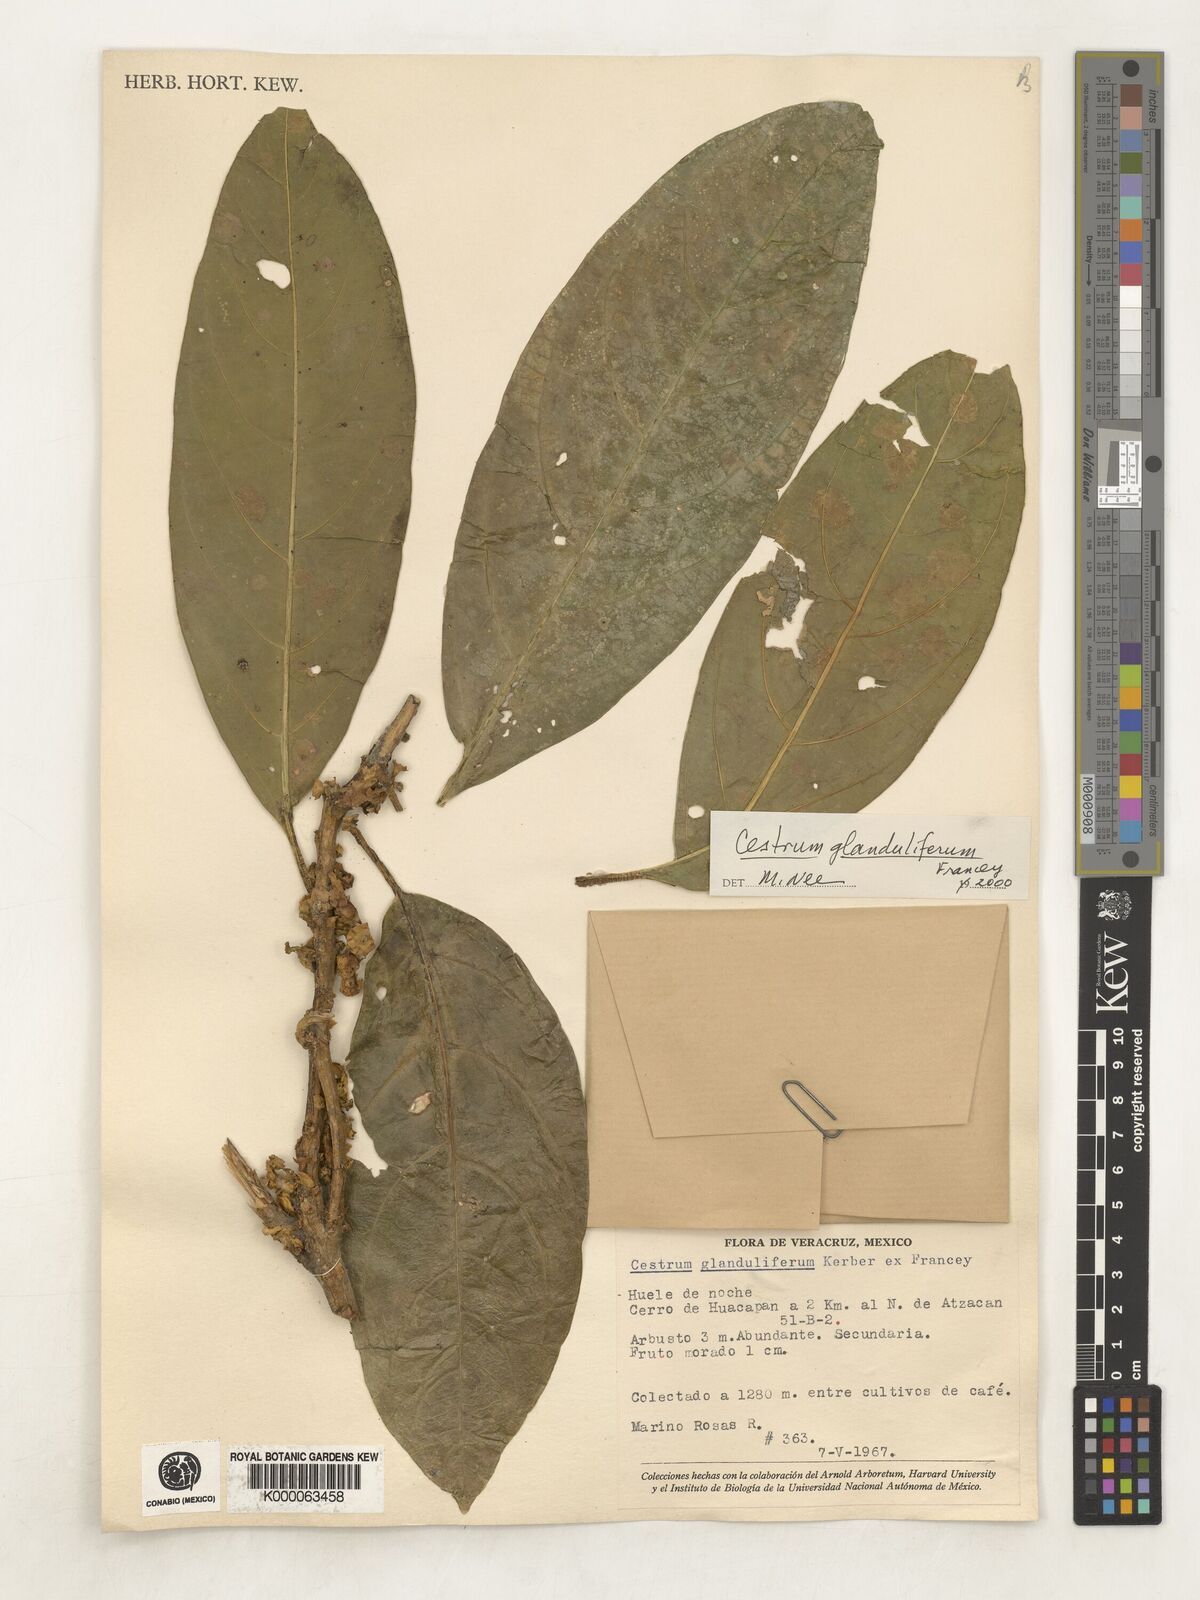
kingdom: Plantae
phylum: Tracheophyta
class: Magnoliopsida
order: Solanales
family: Solanaceae
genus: Cestrum
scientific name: Cestrum glanduliferum
